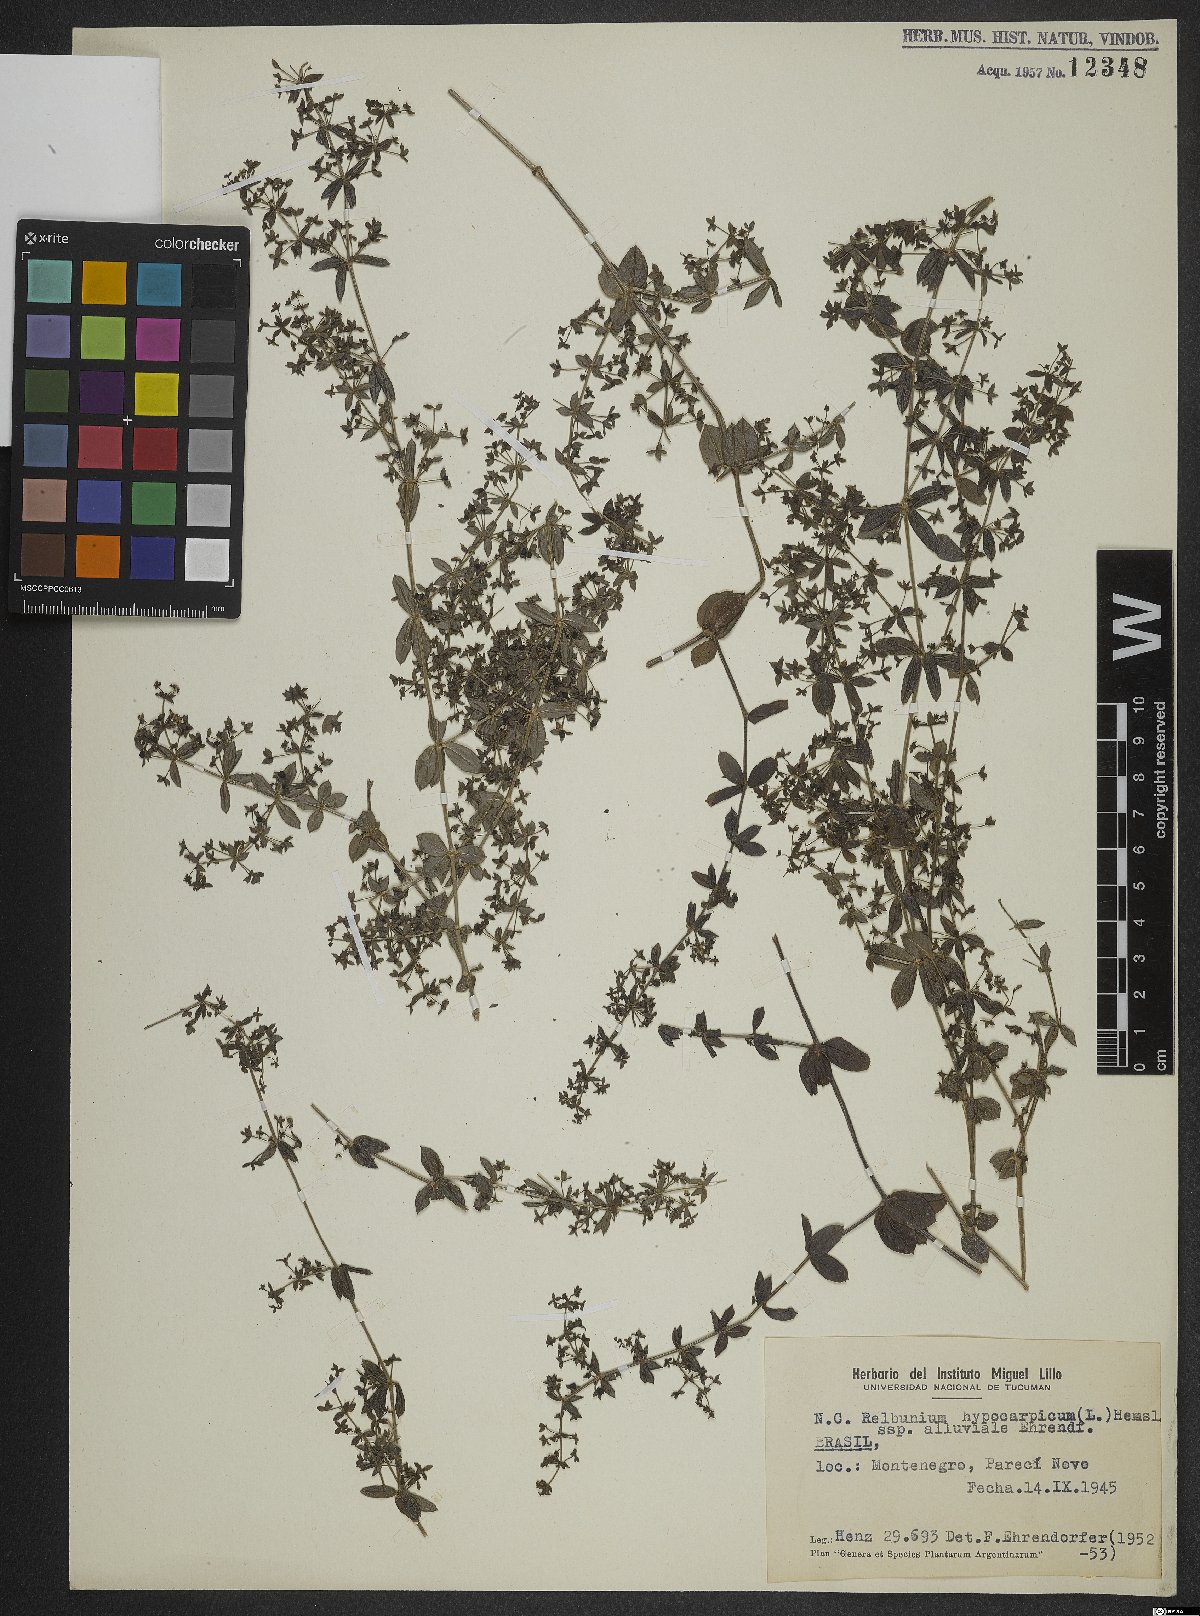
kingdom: Plantae
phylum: Tracheophyta
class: Magnoliopsida
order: Gentianales
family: Rubiaceae
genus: Galium
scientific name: Galium hypocarpium
